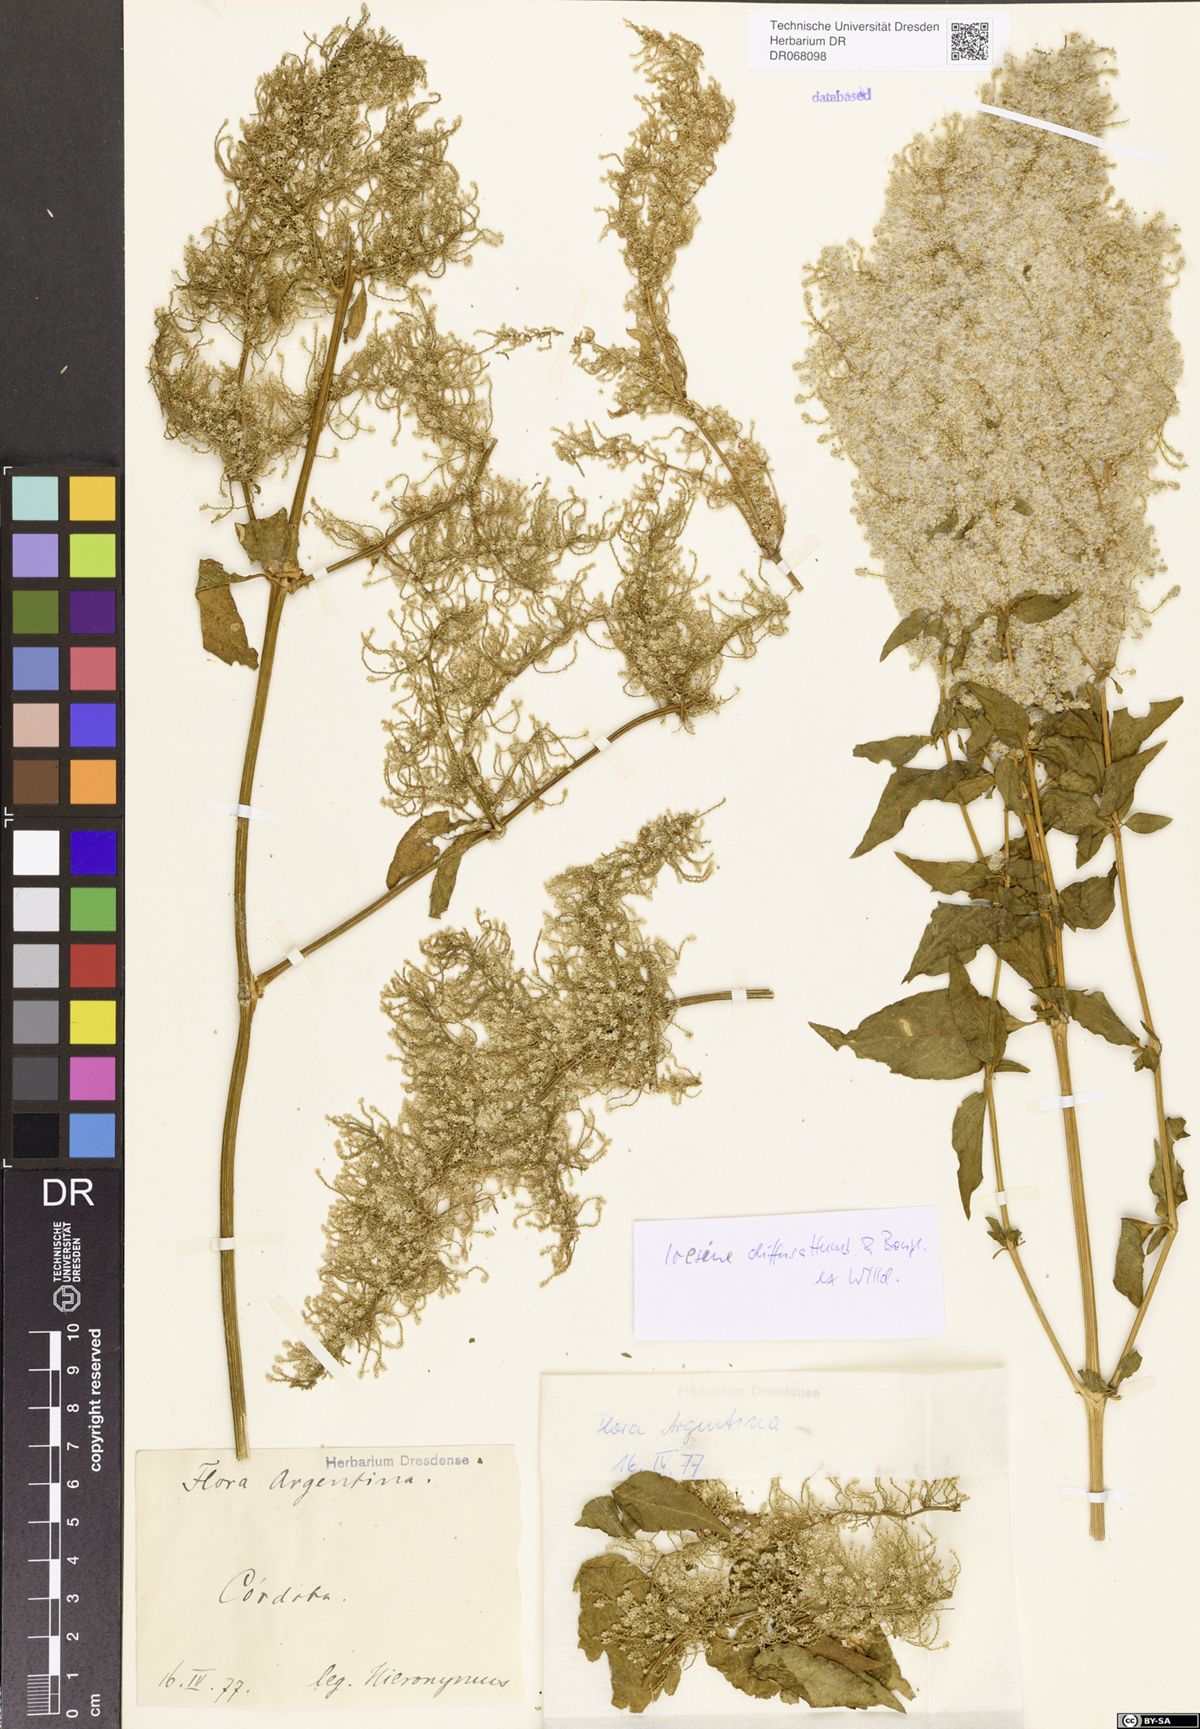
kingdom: Plantae
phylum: Tracheophyta
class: Magnoliopsida
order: Caryophyllales
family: Amaranthaceae
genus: Iresine
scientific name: Iresine diffusa
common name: Juba's-bush
